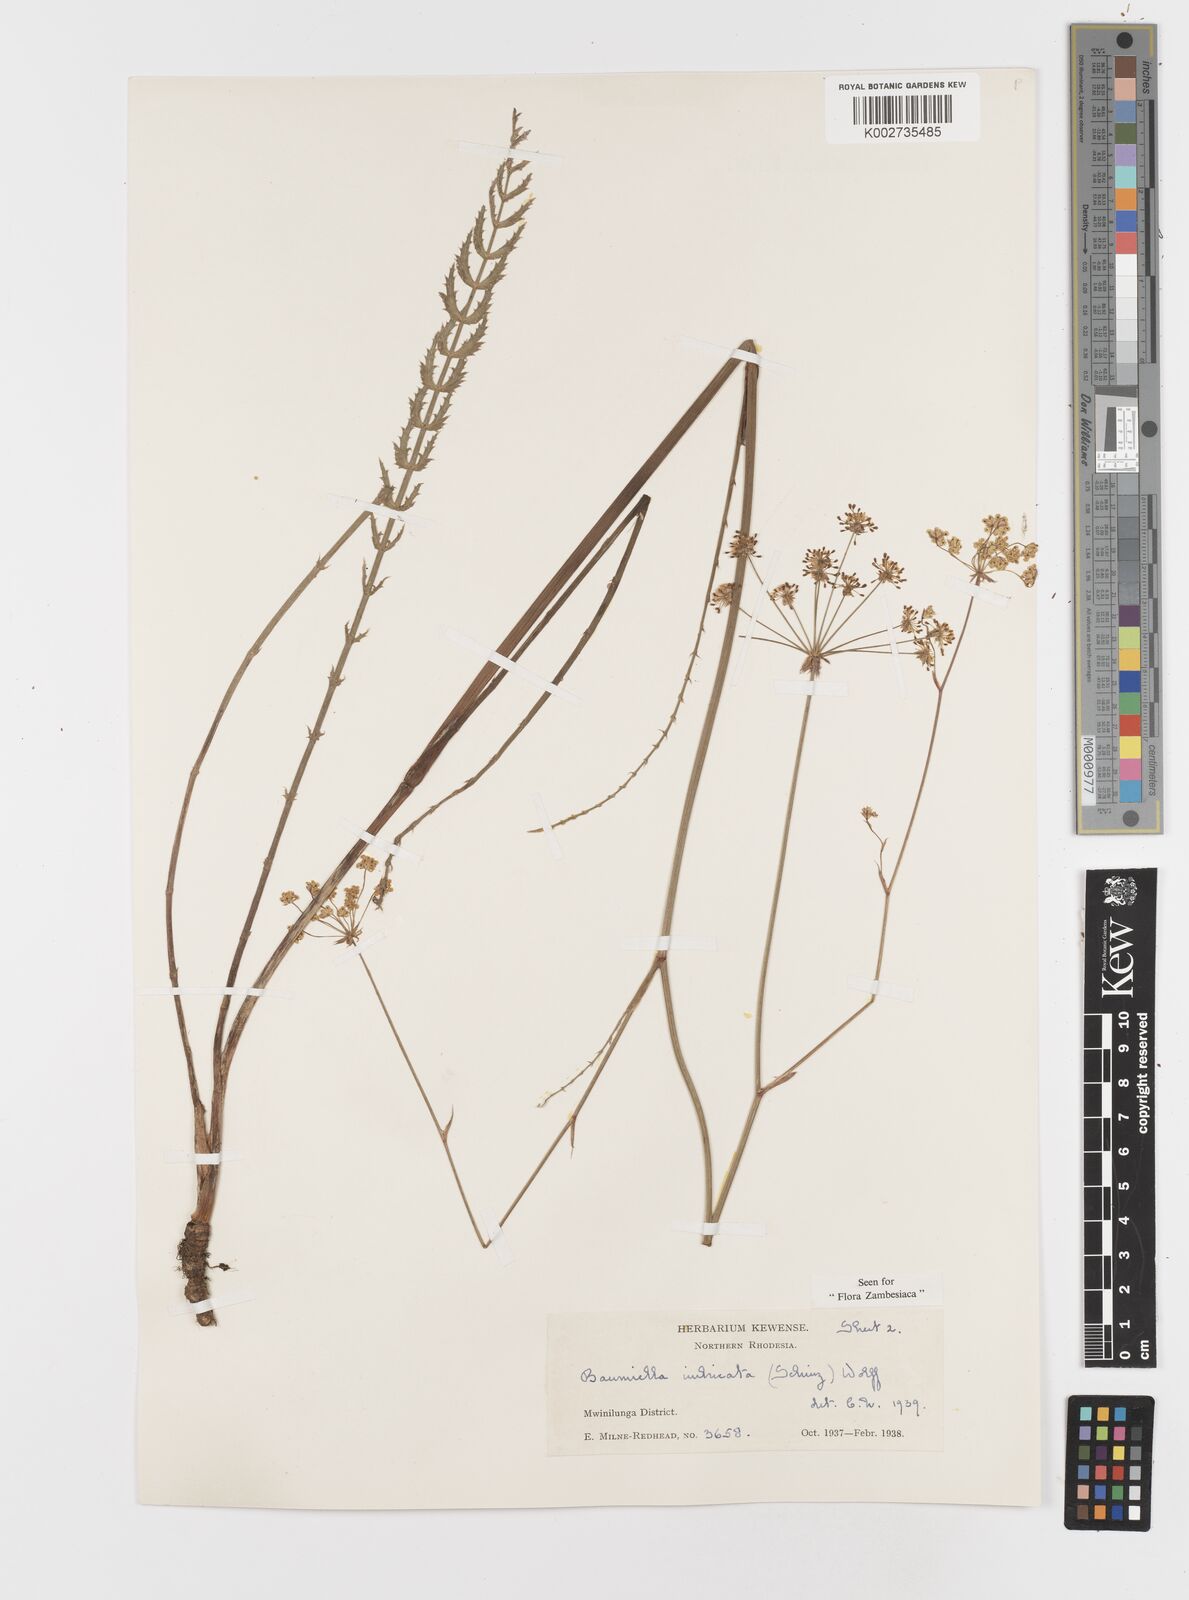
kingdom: Plantae
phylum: Tracheophyta
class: Magnoliopsida
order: Apiales
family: Apiaceae
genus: Berula
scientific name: Berula imbricata
